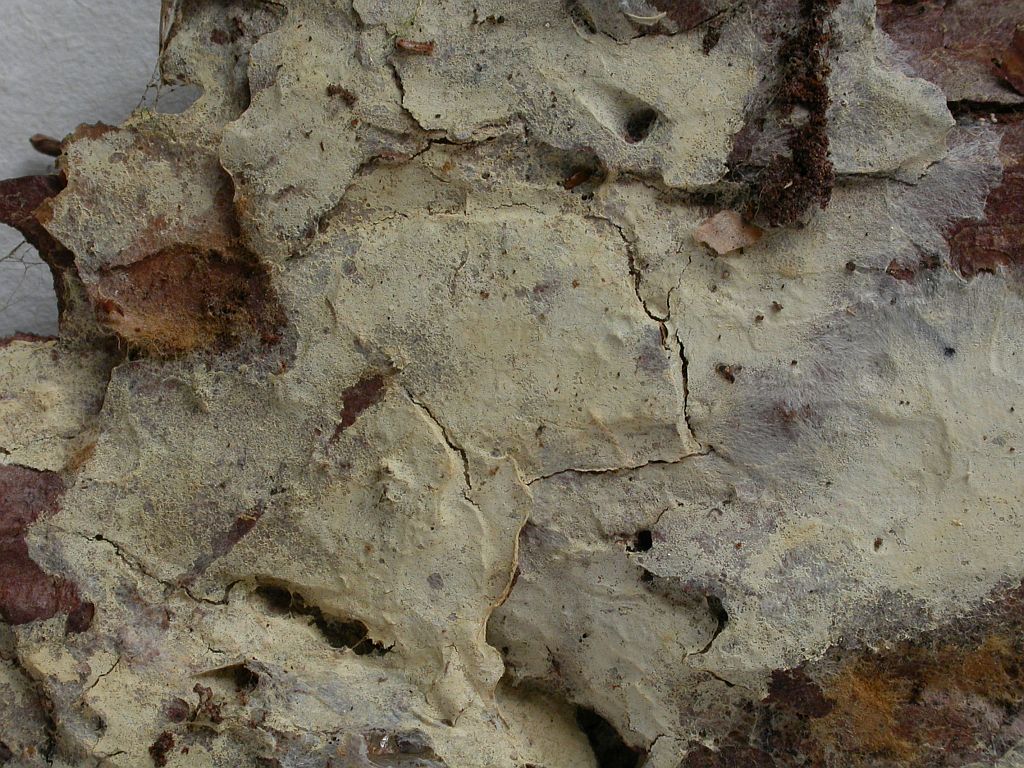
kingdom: Fungi
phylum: Basidiomycota
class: Agaricomycetes
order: Atheliales
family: Atheliaceae
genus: Amphinema
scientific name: Amphinema byssoides
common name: almindelig rodhinde
